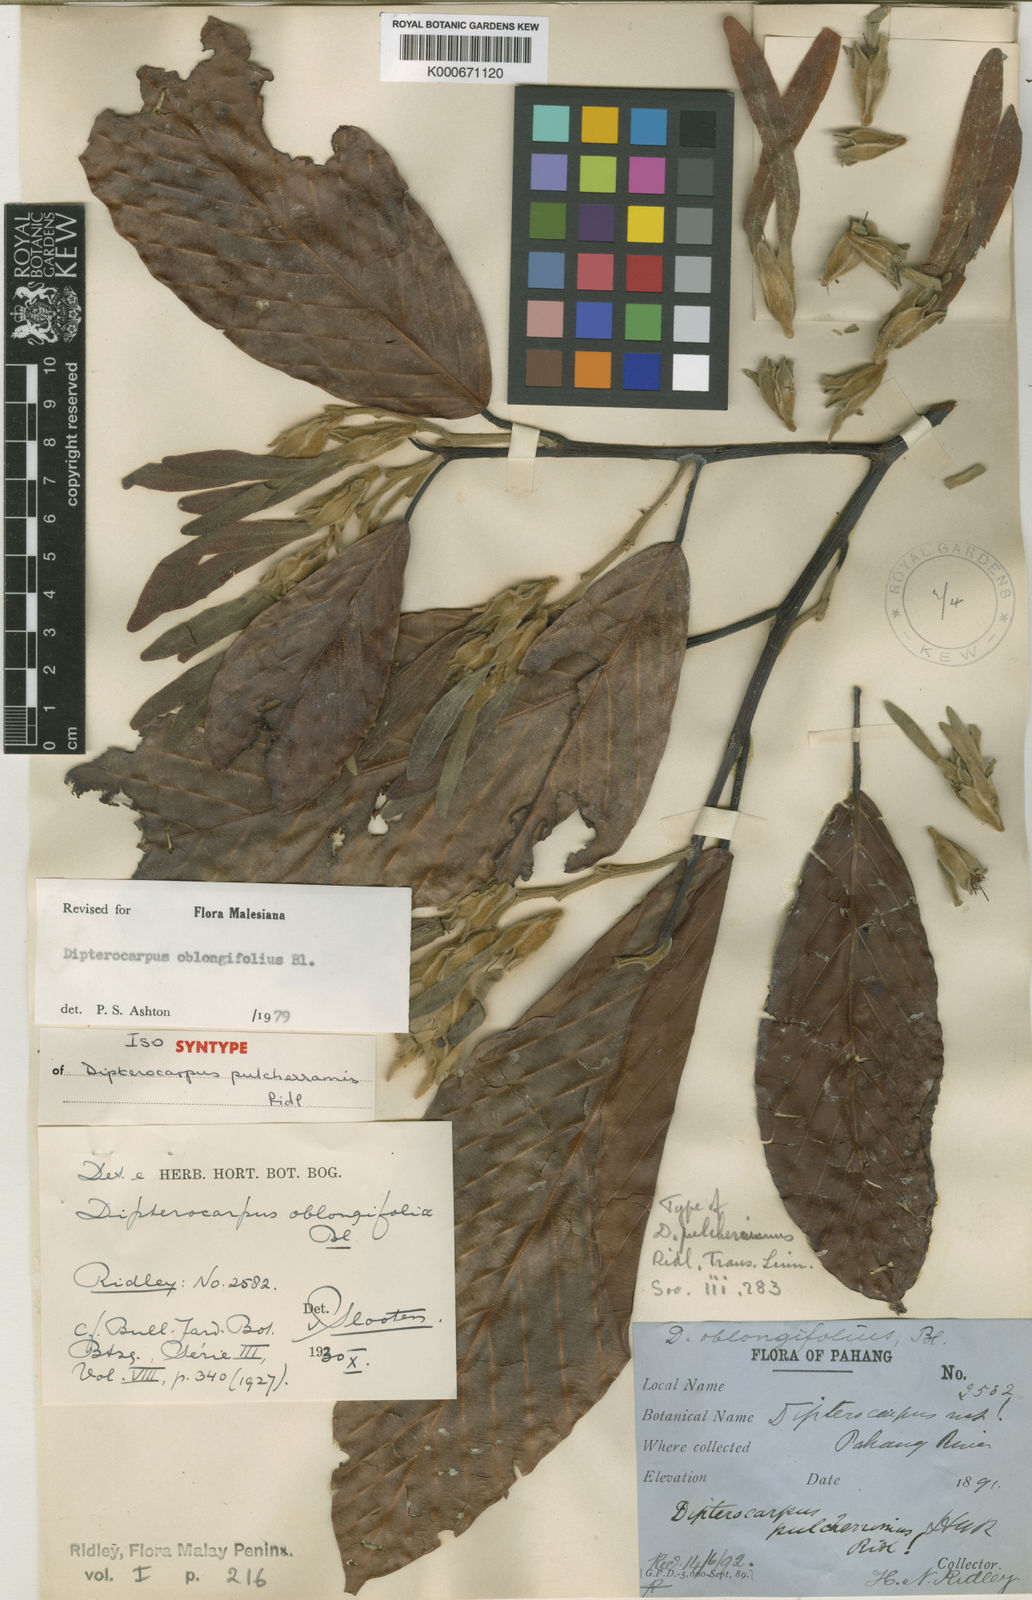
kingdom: Plantae
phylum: Tracheophyta
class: Magnoliopsida
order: Malvales
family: Dipterocarpaceae
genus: Dipterocarpus
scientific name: Dipterocarpus oblongifolius
